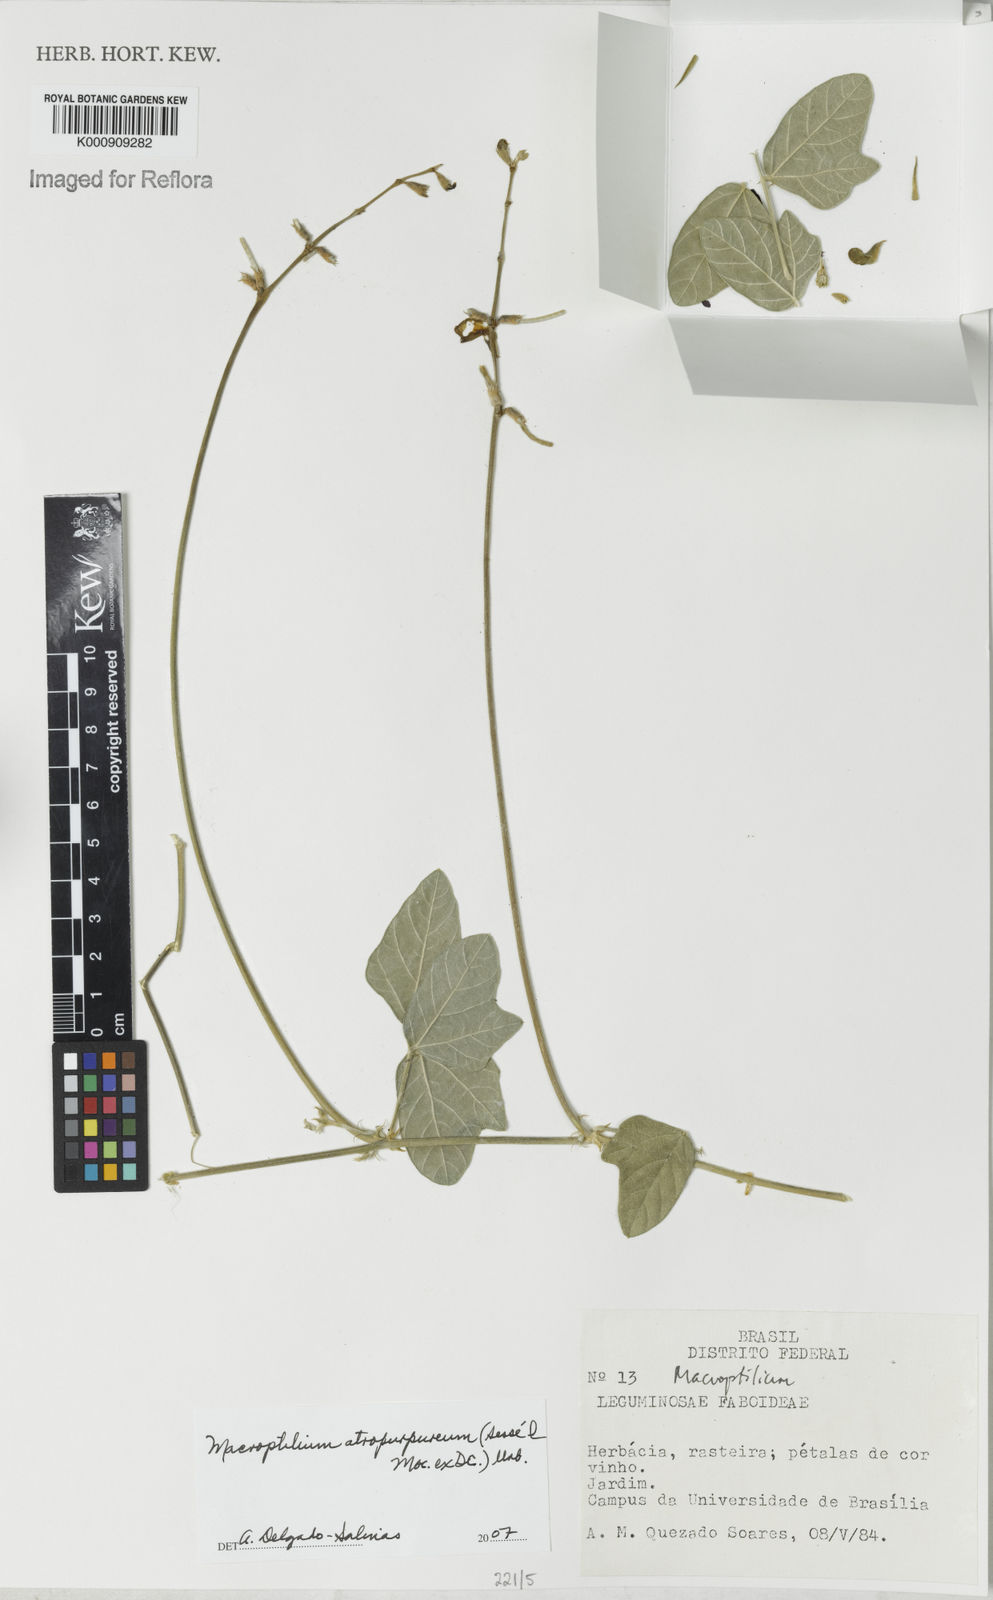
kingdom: Plantae
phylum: Tracheophyta
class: Magnoliopsida
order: Fabales
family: Fabaceae
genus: Macroptilium
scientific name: Macroptilium atropurpureum
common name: Purple bushbean
